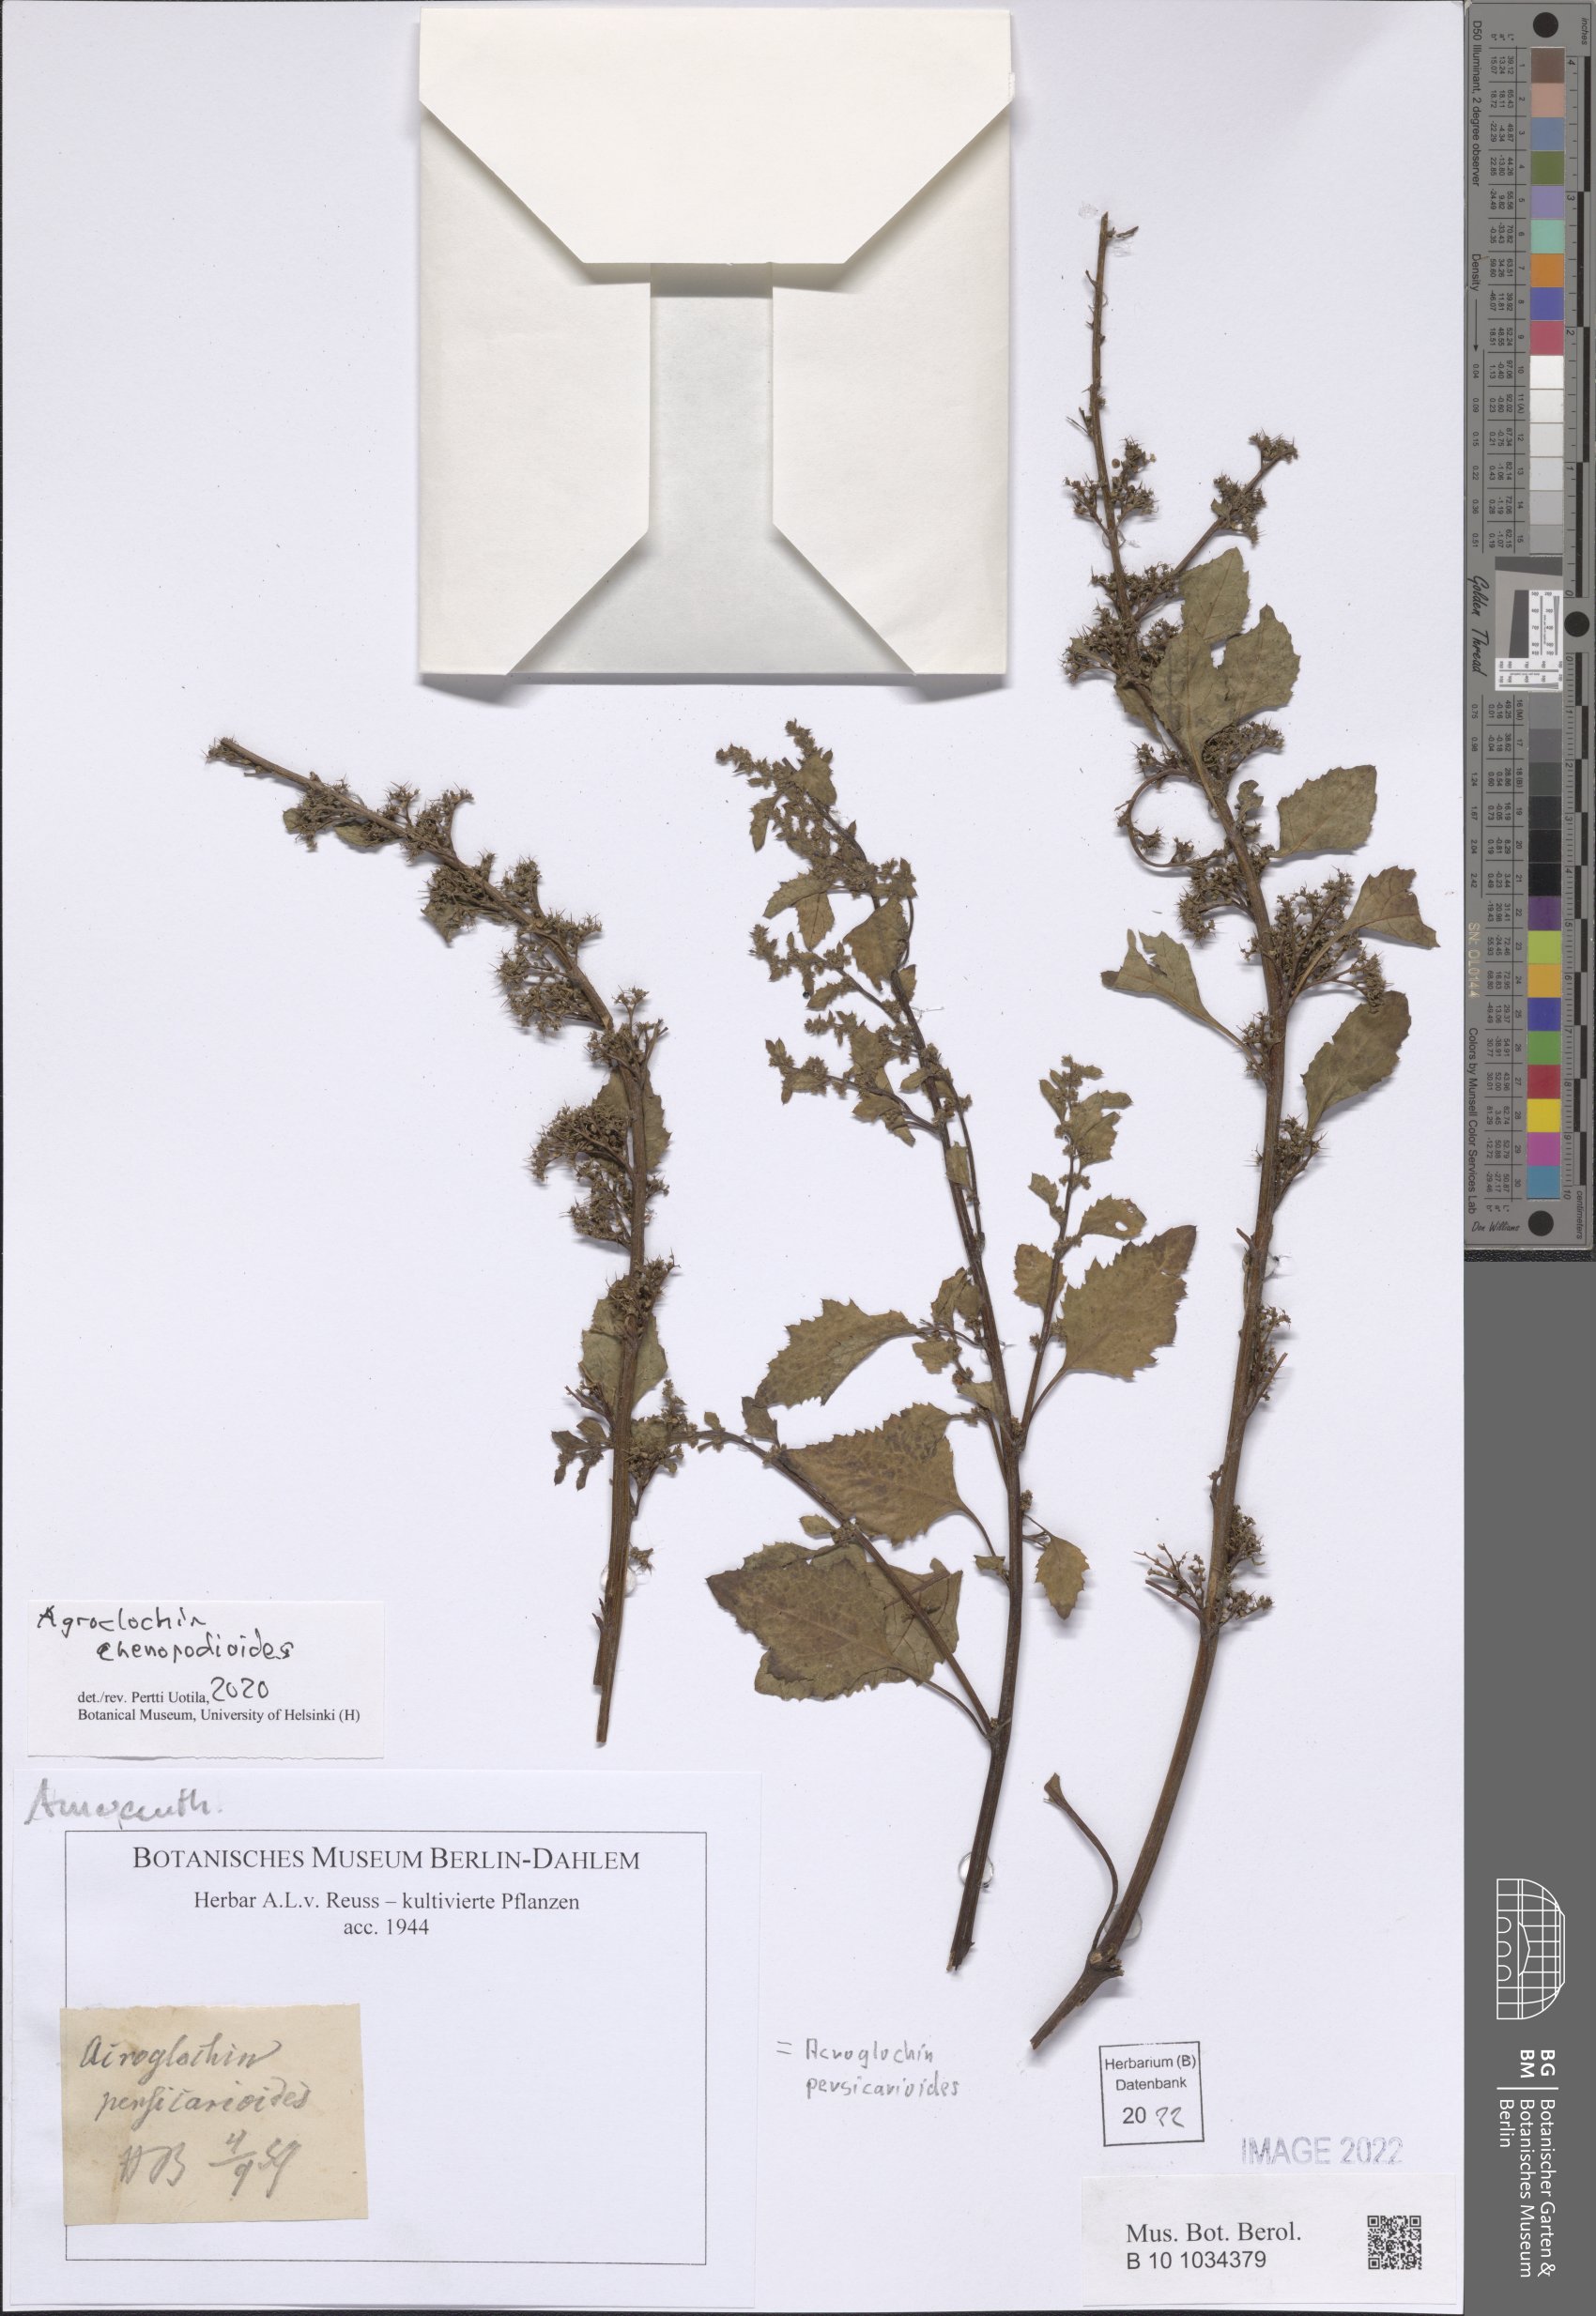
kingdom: Plantae
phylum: Tracheophyta
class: Magnoliopsida
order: Caryophyllales
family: Amaranthaceae
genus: Acroglochin
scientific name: Acroglochin persicarioides
